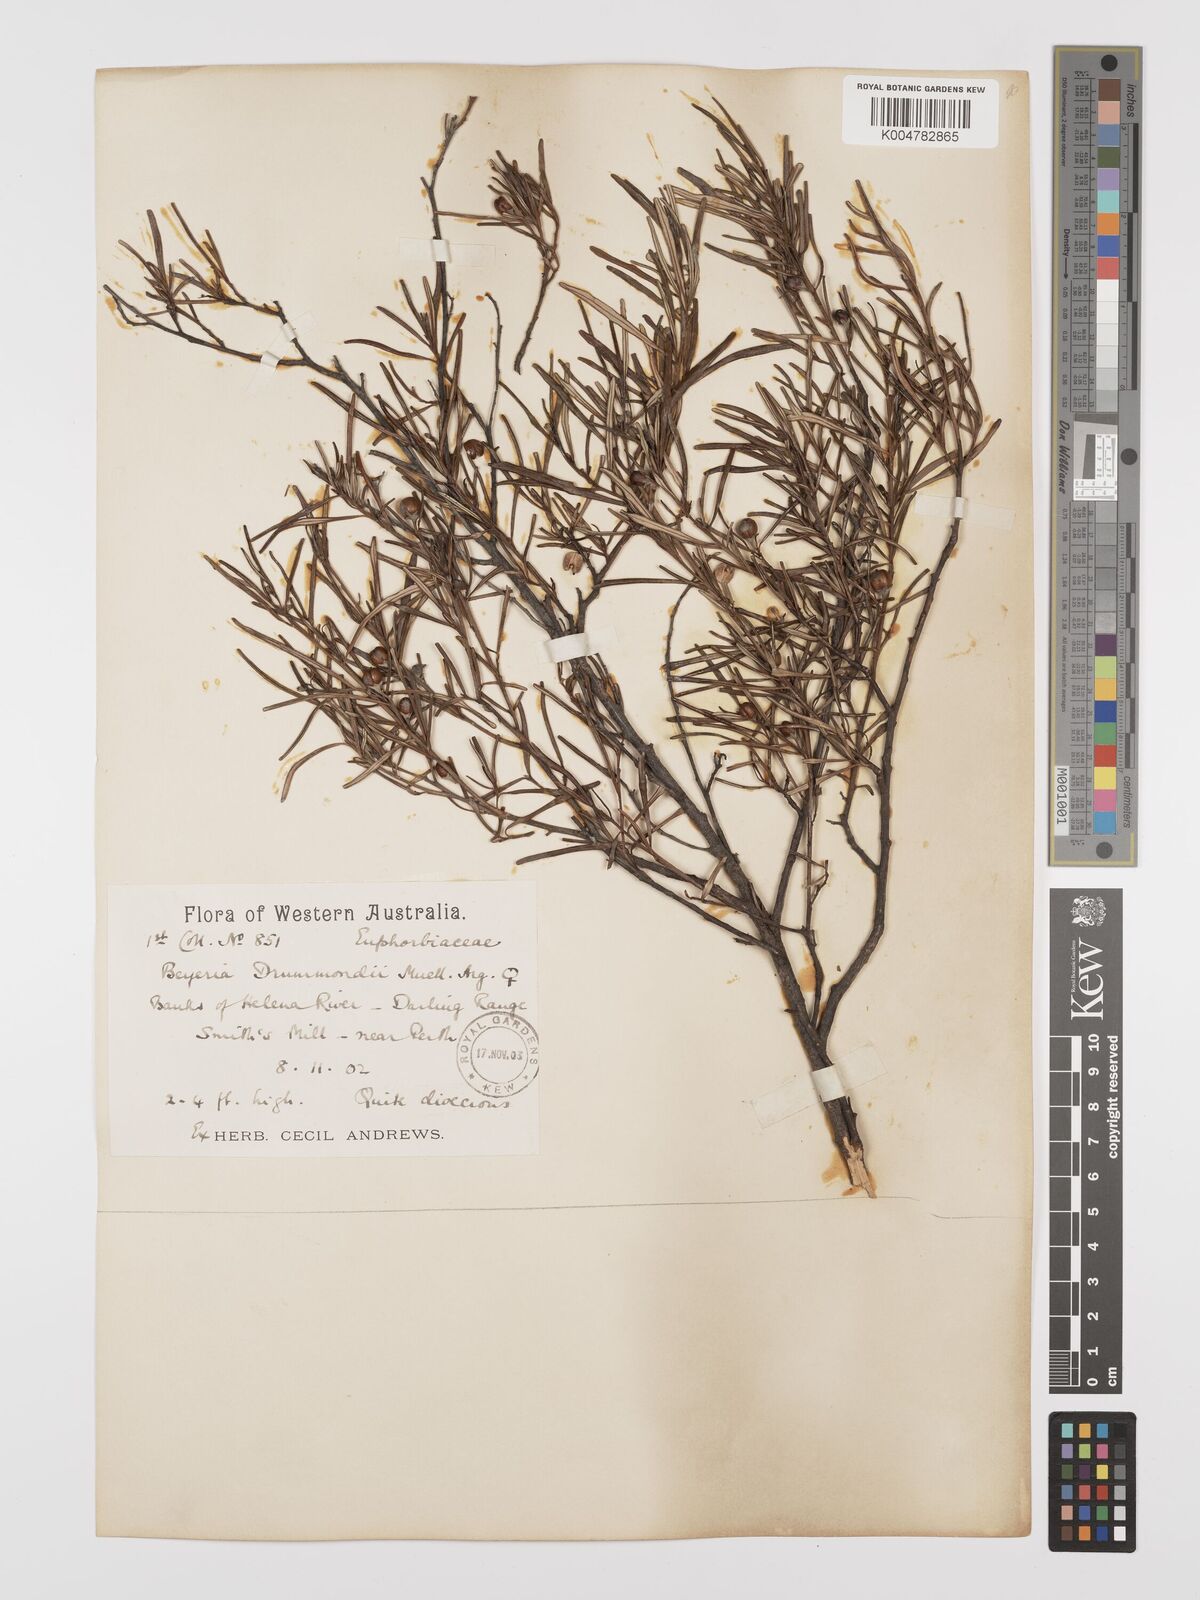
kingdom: Plantae
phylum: Tracheophyta
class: Magnoliopsida
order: Malpighiales
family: Euphorbiaceae
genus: Beyeria
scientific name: Beyeria lechenaultii
